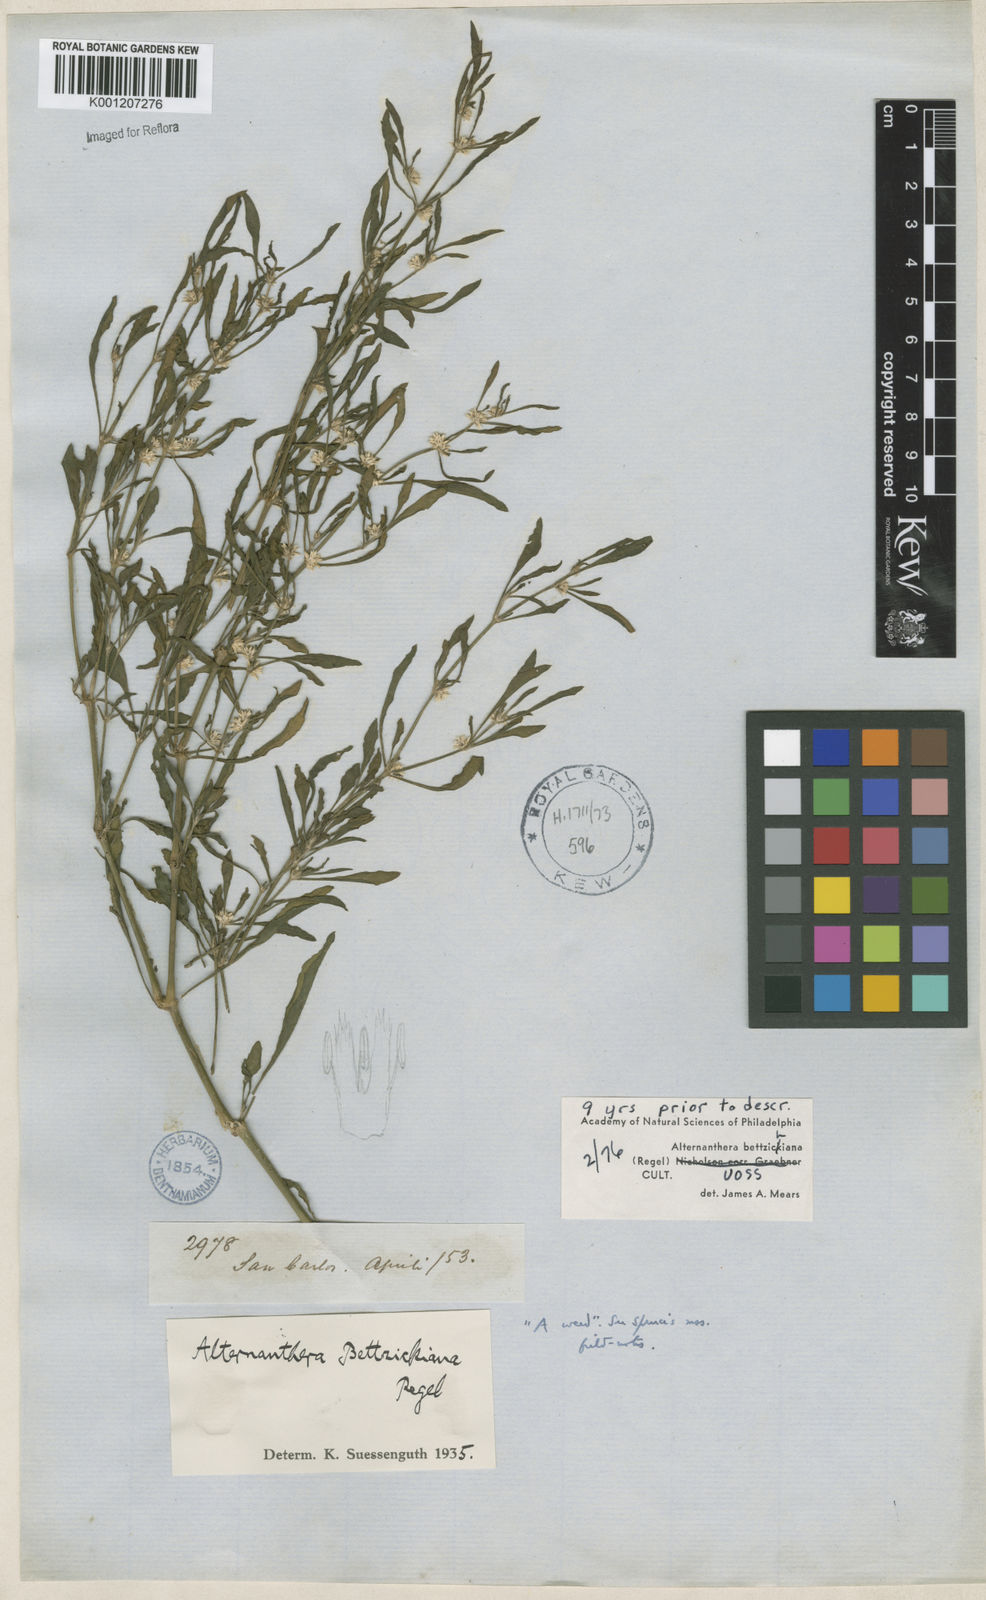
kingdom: Plantae
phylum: Tracheophyta
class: Magnoliopsida
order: Caryophyllales
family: Amaranthaceae
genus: Alternanthera
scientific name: Alternanthera bettzickiana
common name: Calico-plant
